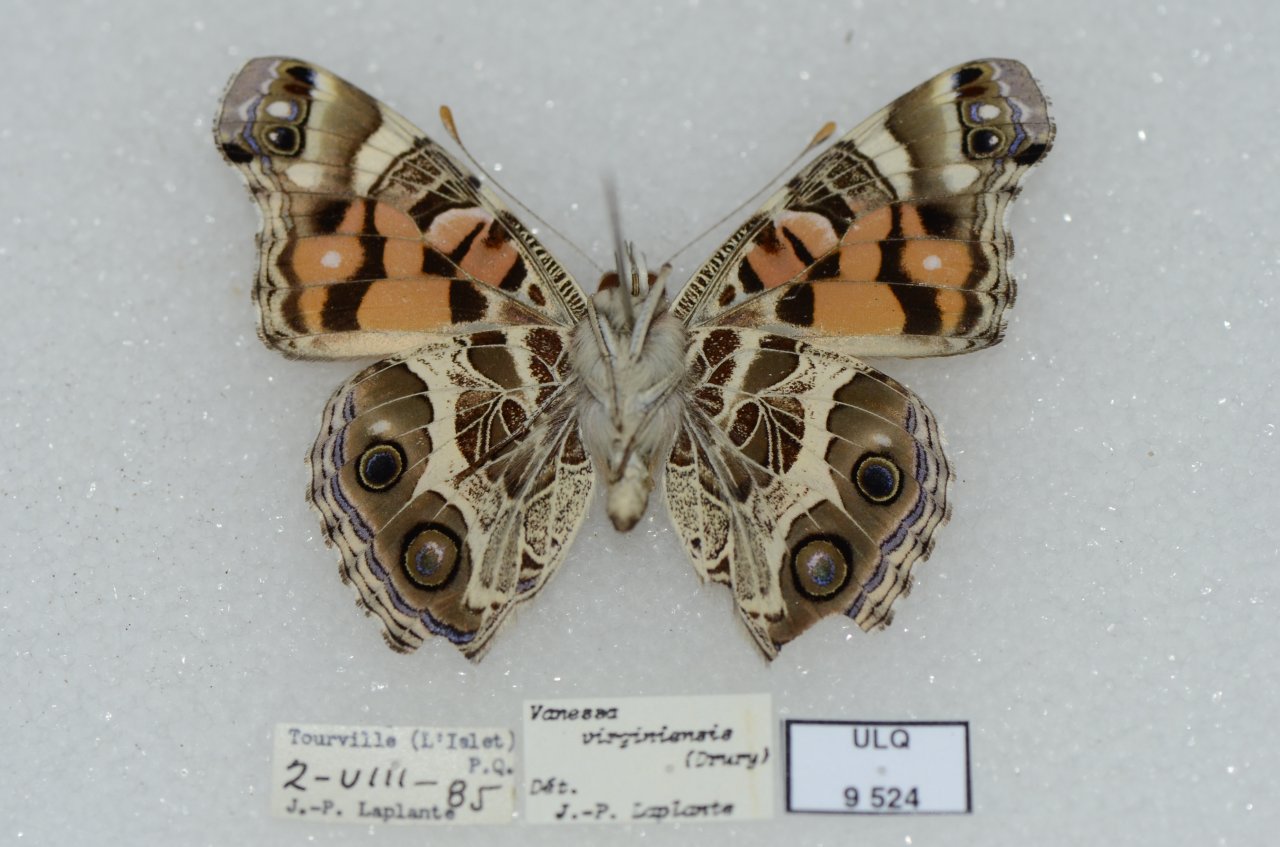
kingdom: Animalia
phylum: Arthropoda
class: Insecta
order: Lepidoptera
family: Nymphalidae
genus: Vanessa
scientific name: Vanessa virginiensis
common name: American Lady
